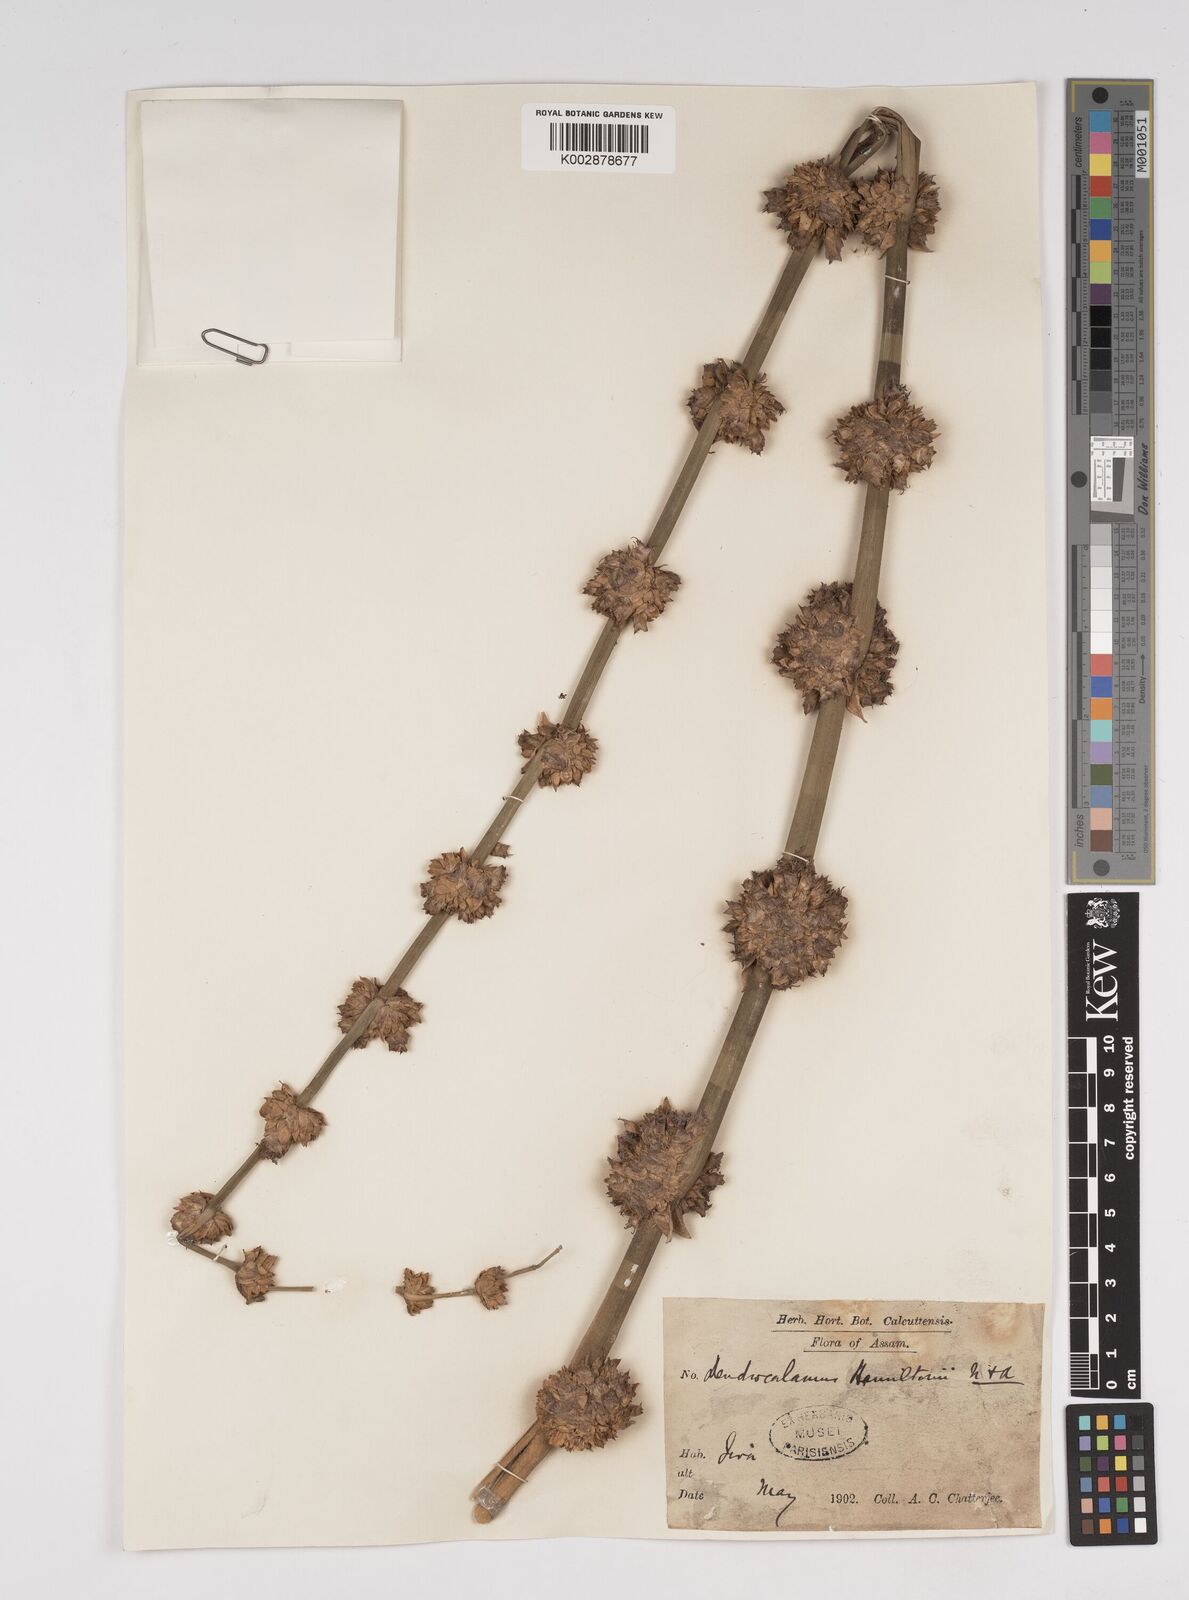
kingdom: Plantae
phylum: Tracheophyta
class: Liliopsida
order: Poales
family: Poaceae
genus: Dendrocalamus
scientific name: Dendrocalamus hamiltonii
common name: Tama bamboo
